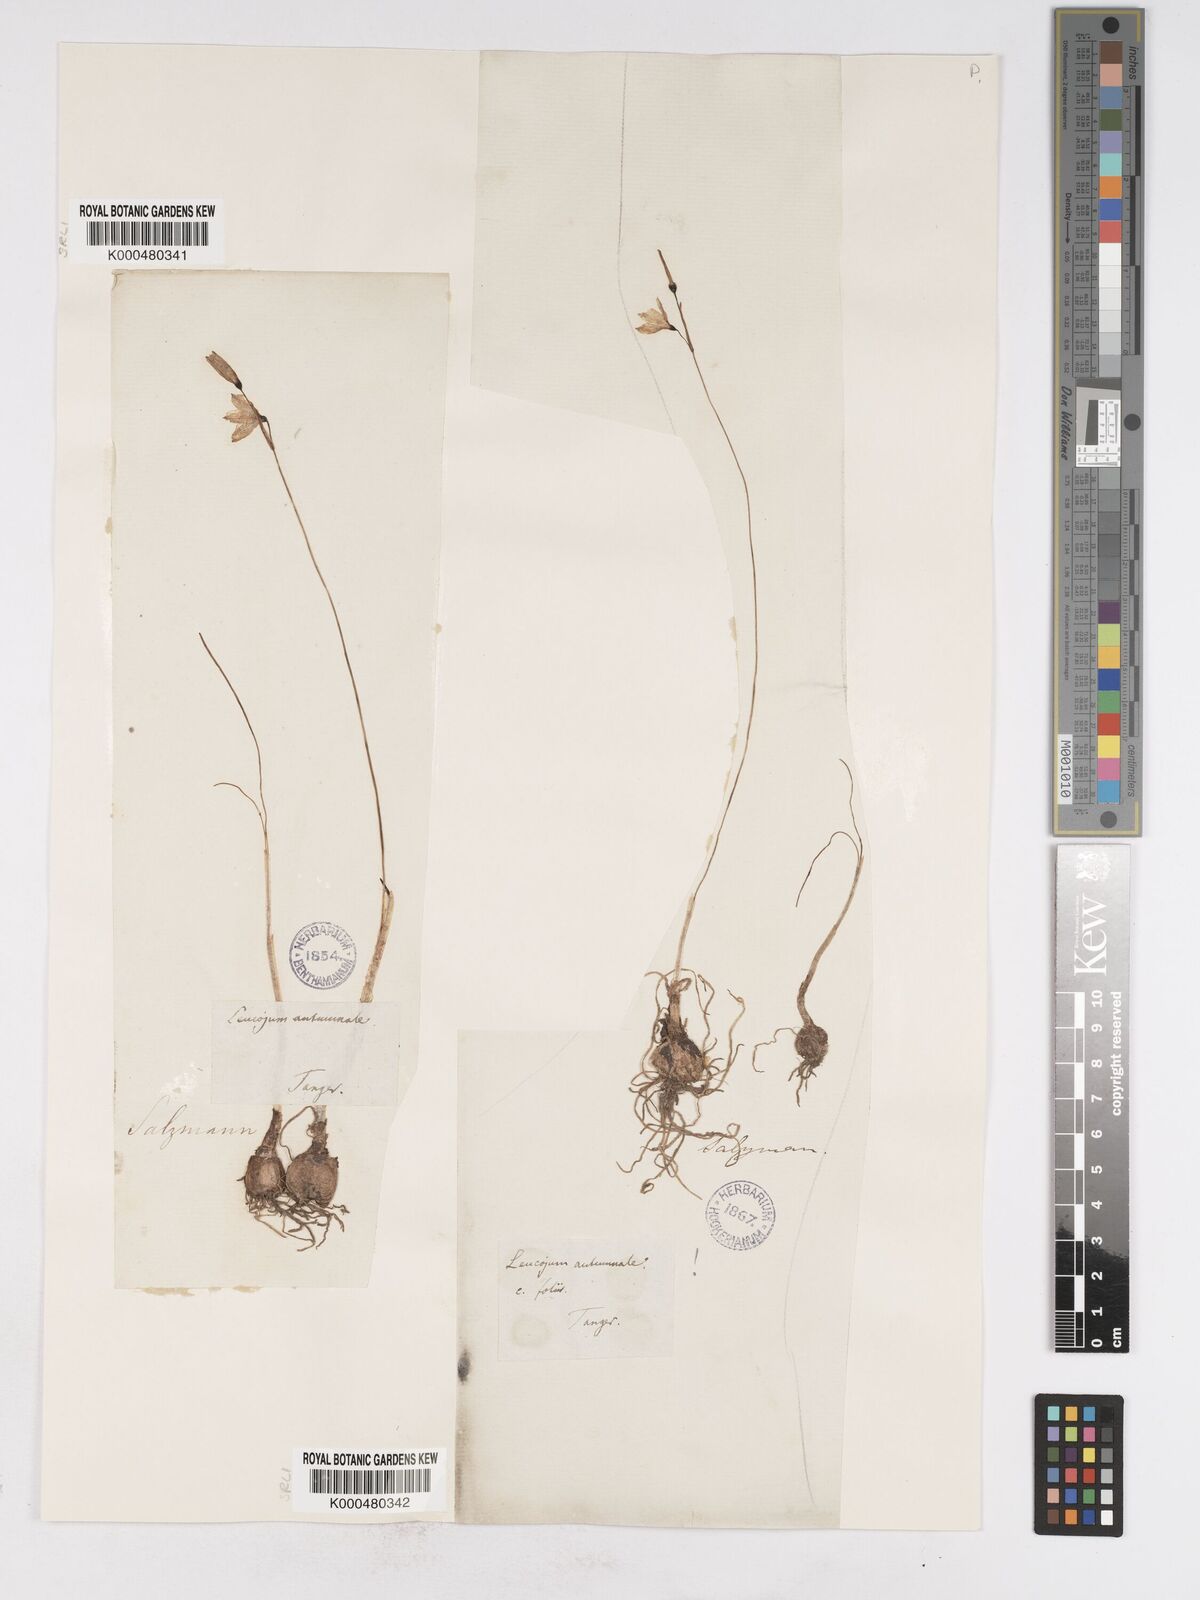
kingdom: Plantae
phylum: Tracheophyta
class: Liliopsida
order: Asparagales
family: Amaryllidaceae
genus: Acis
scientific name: Acis autumnalis
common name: Autumn snowflake
